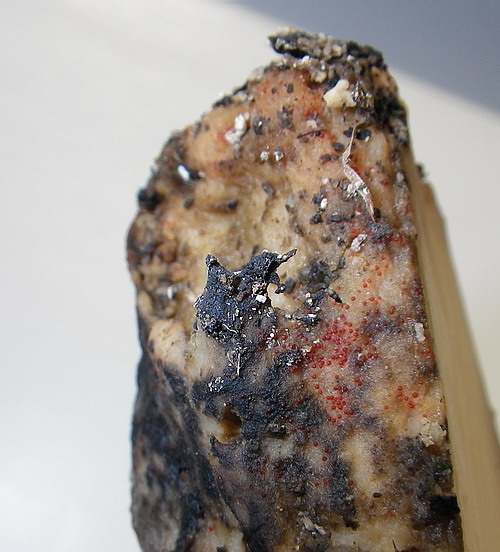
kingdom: Fungi
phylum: Ascomycota
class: Sordariomycetes
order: Hypocreales
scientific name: Hypocreales
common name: kødkerneordenen
